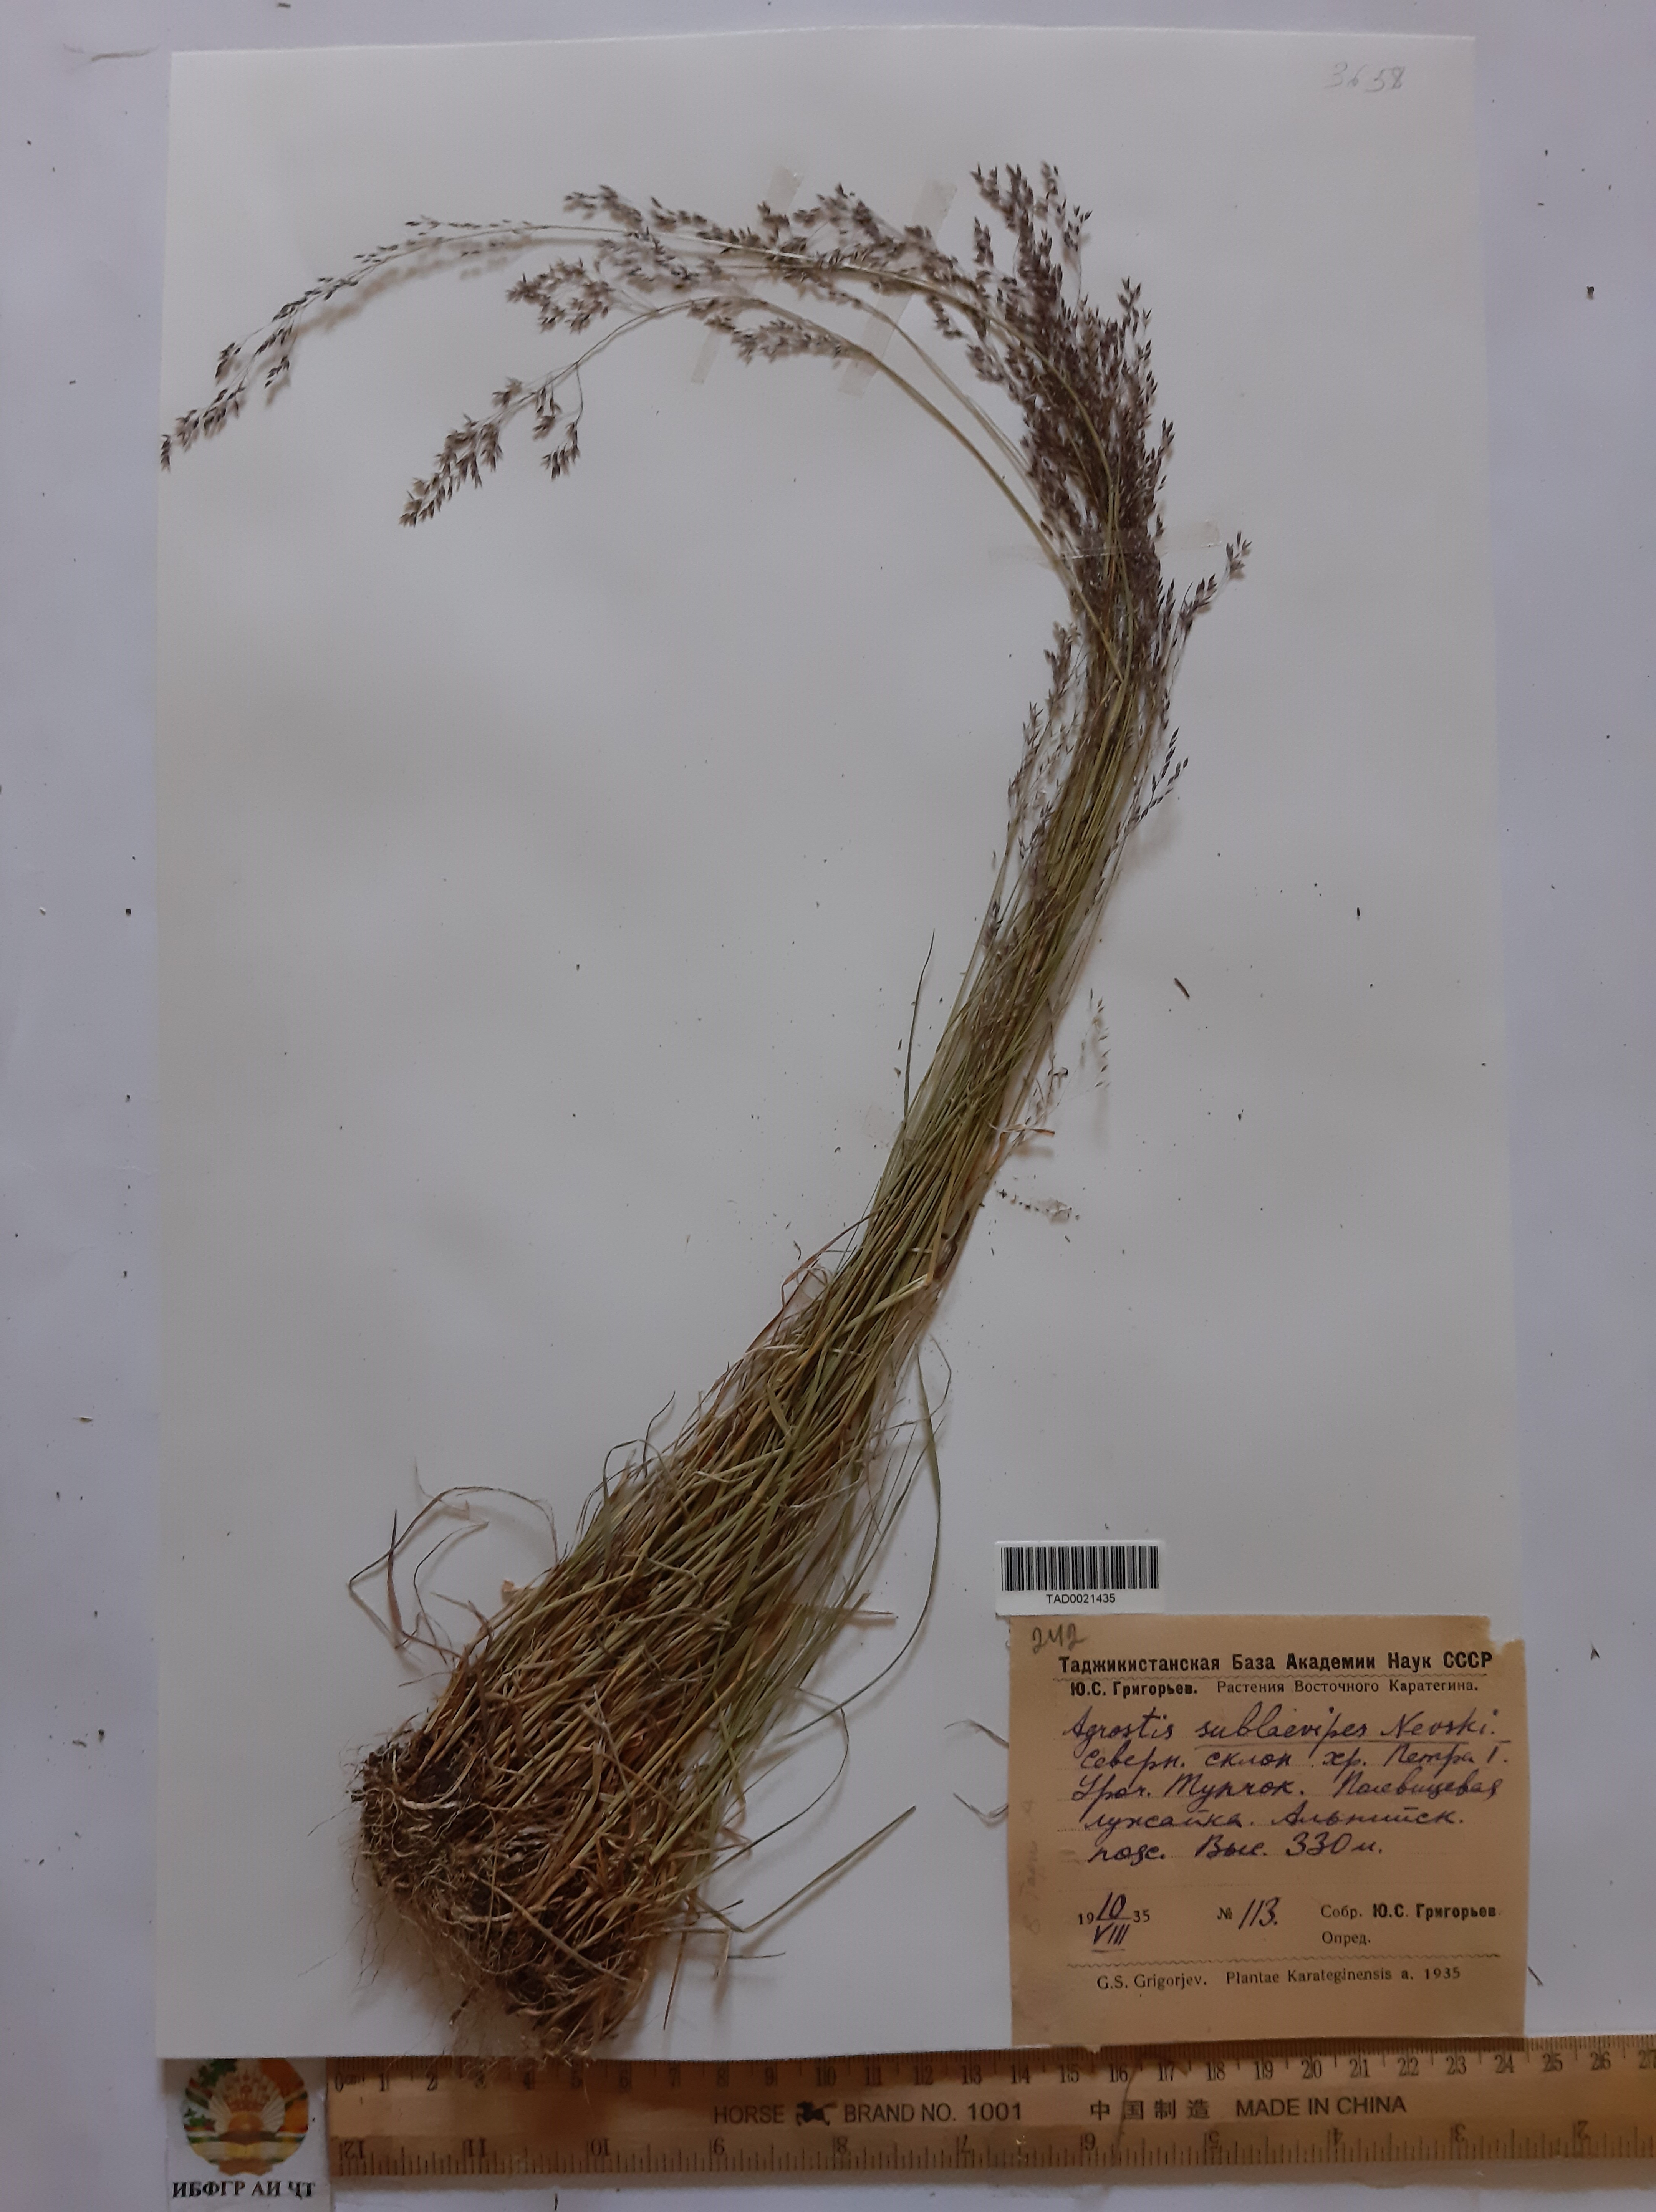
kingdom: Plantae
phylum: Tracheophyta
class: Liliopsida
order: Poales
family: Poaceae
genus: Agrostis
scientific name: Agrostis vinealis
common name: Brown bent
